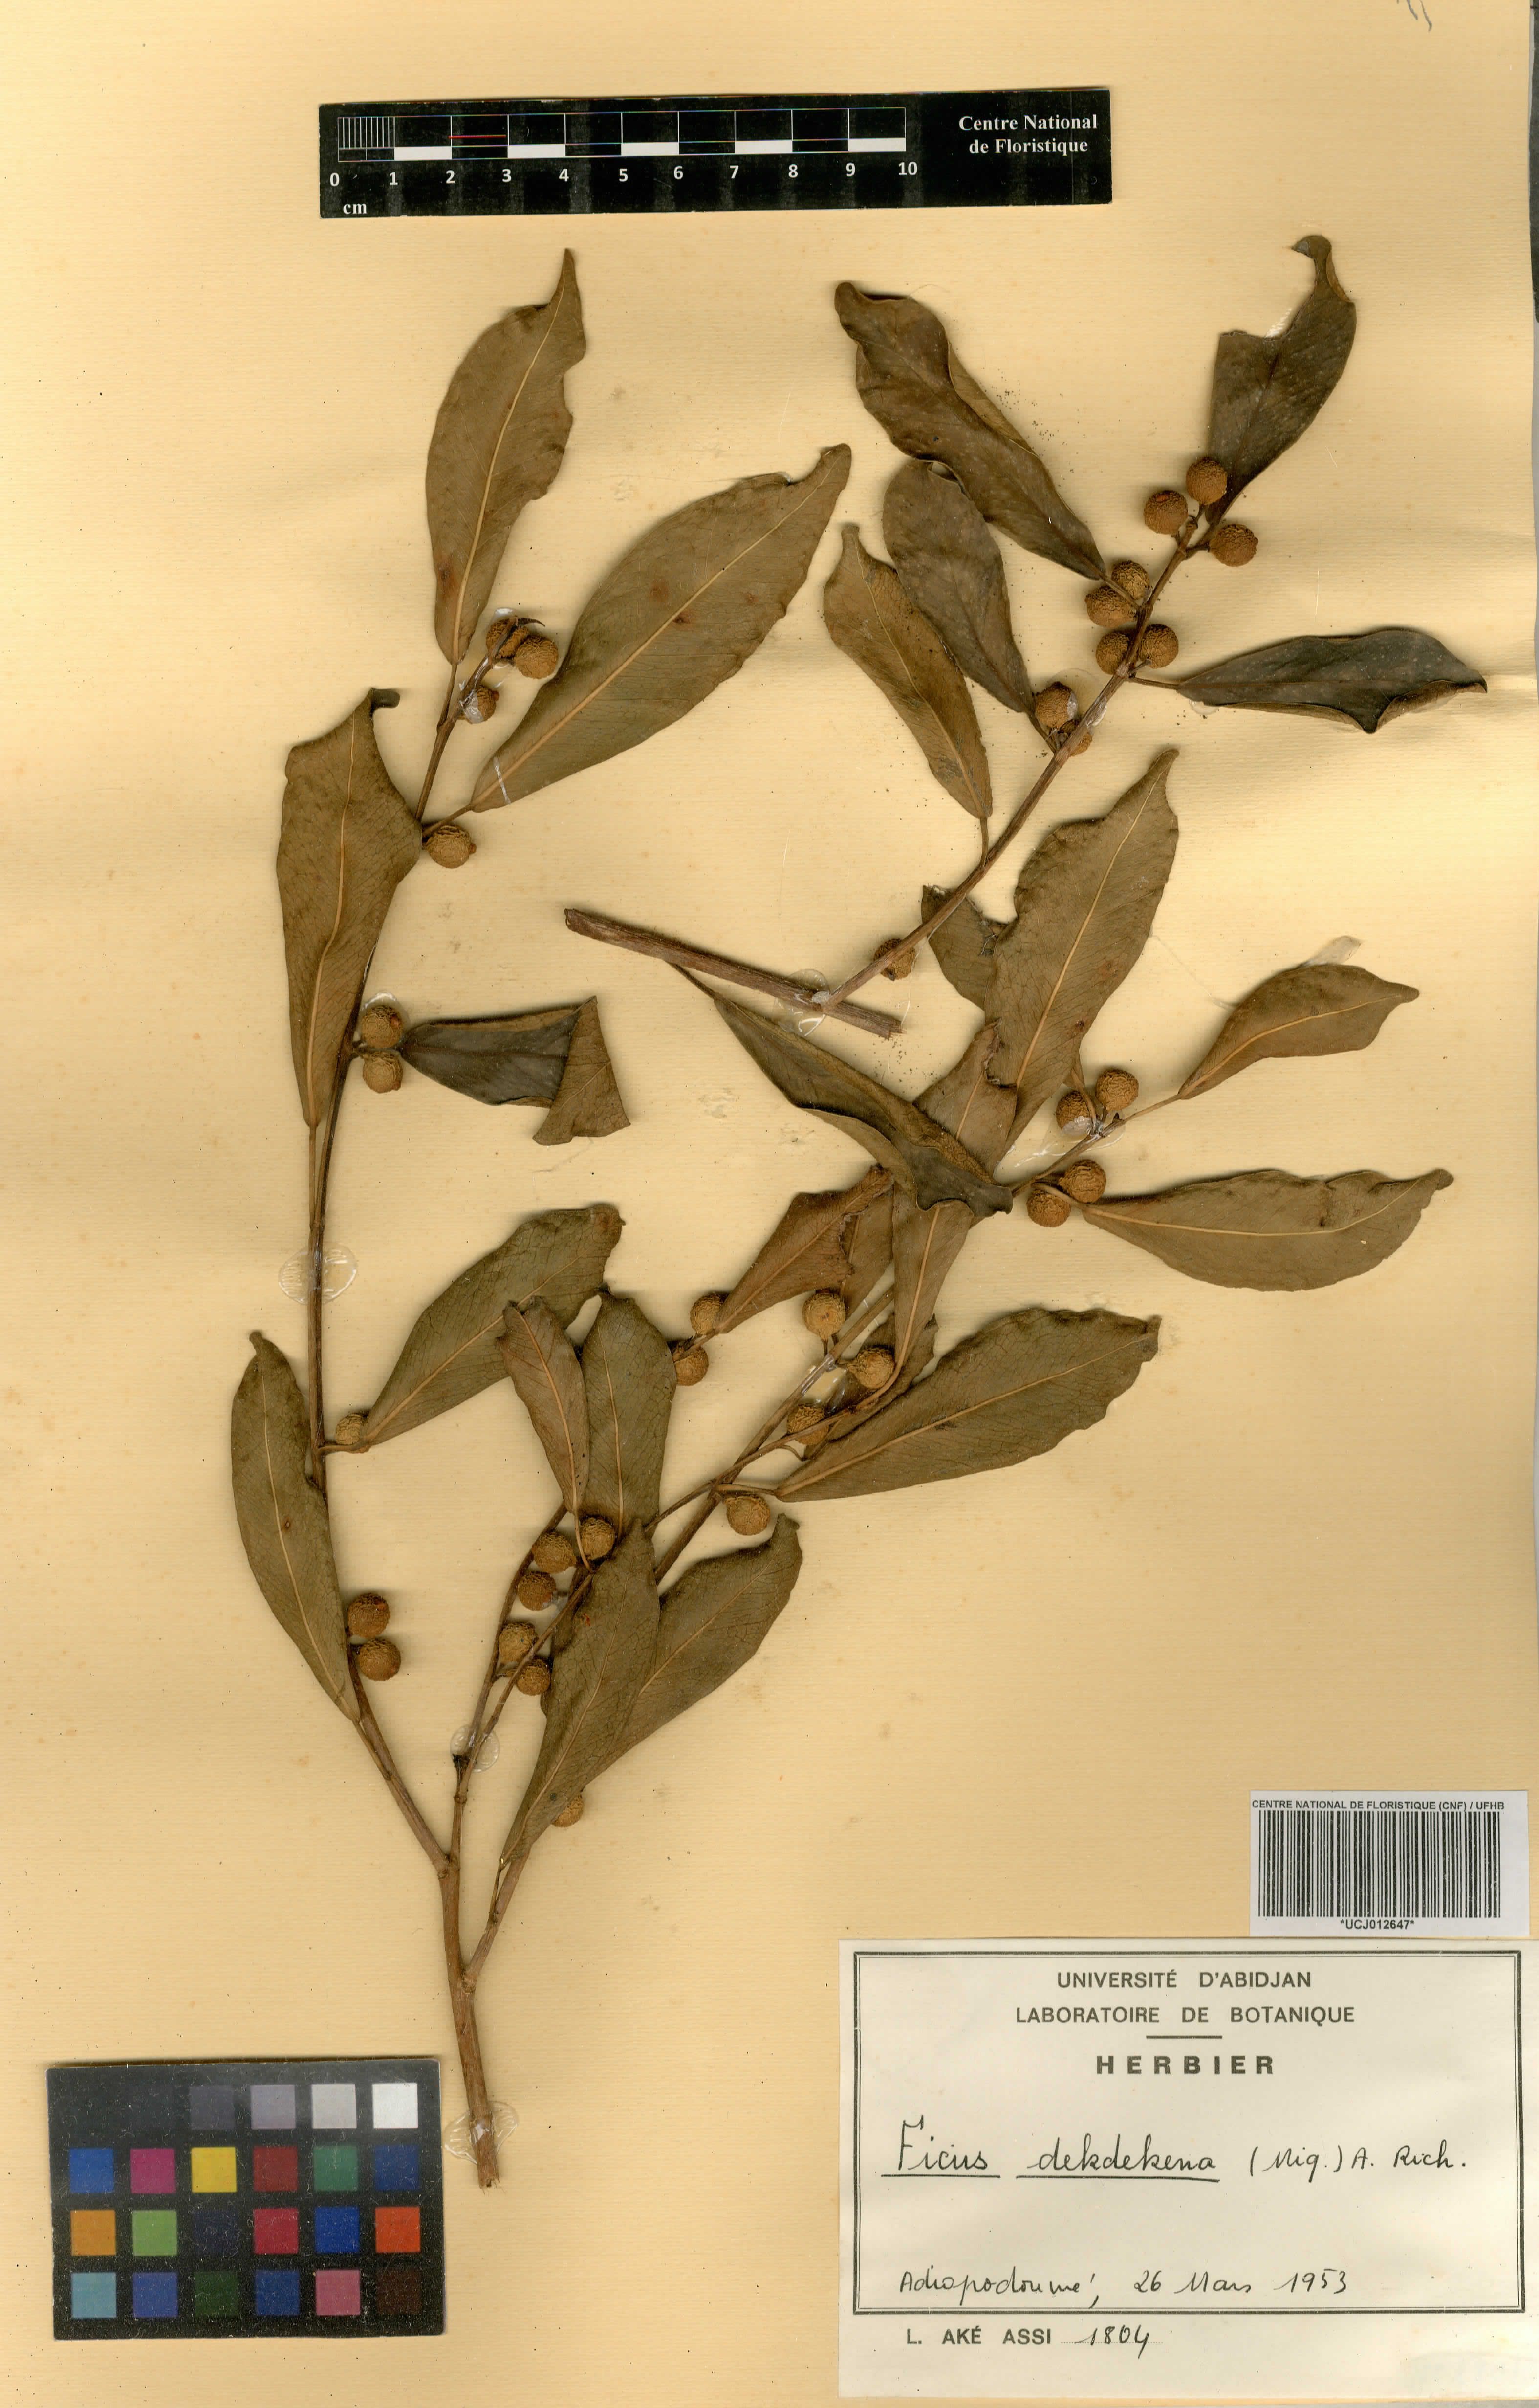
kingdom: Plantae
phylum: Tracheophyta
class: Magnoliopsida
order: Rosales
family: Moraceae
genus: Ficus
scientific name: Ficus thonningii
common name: Fig
